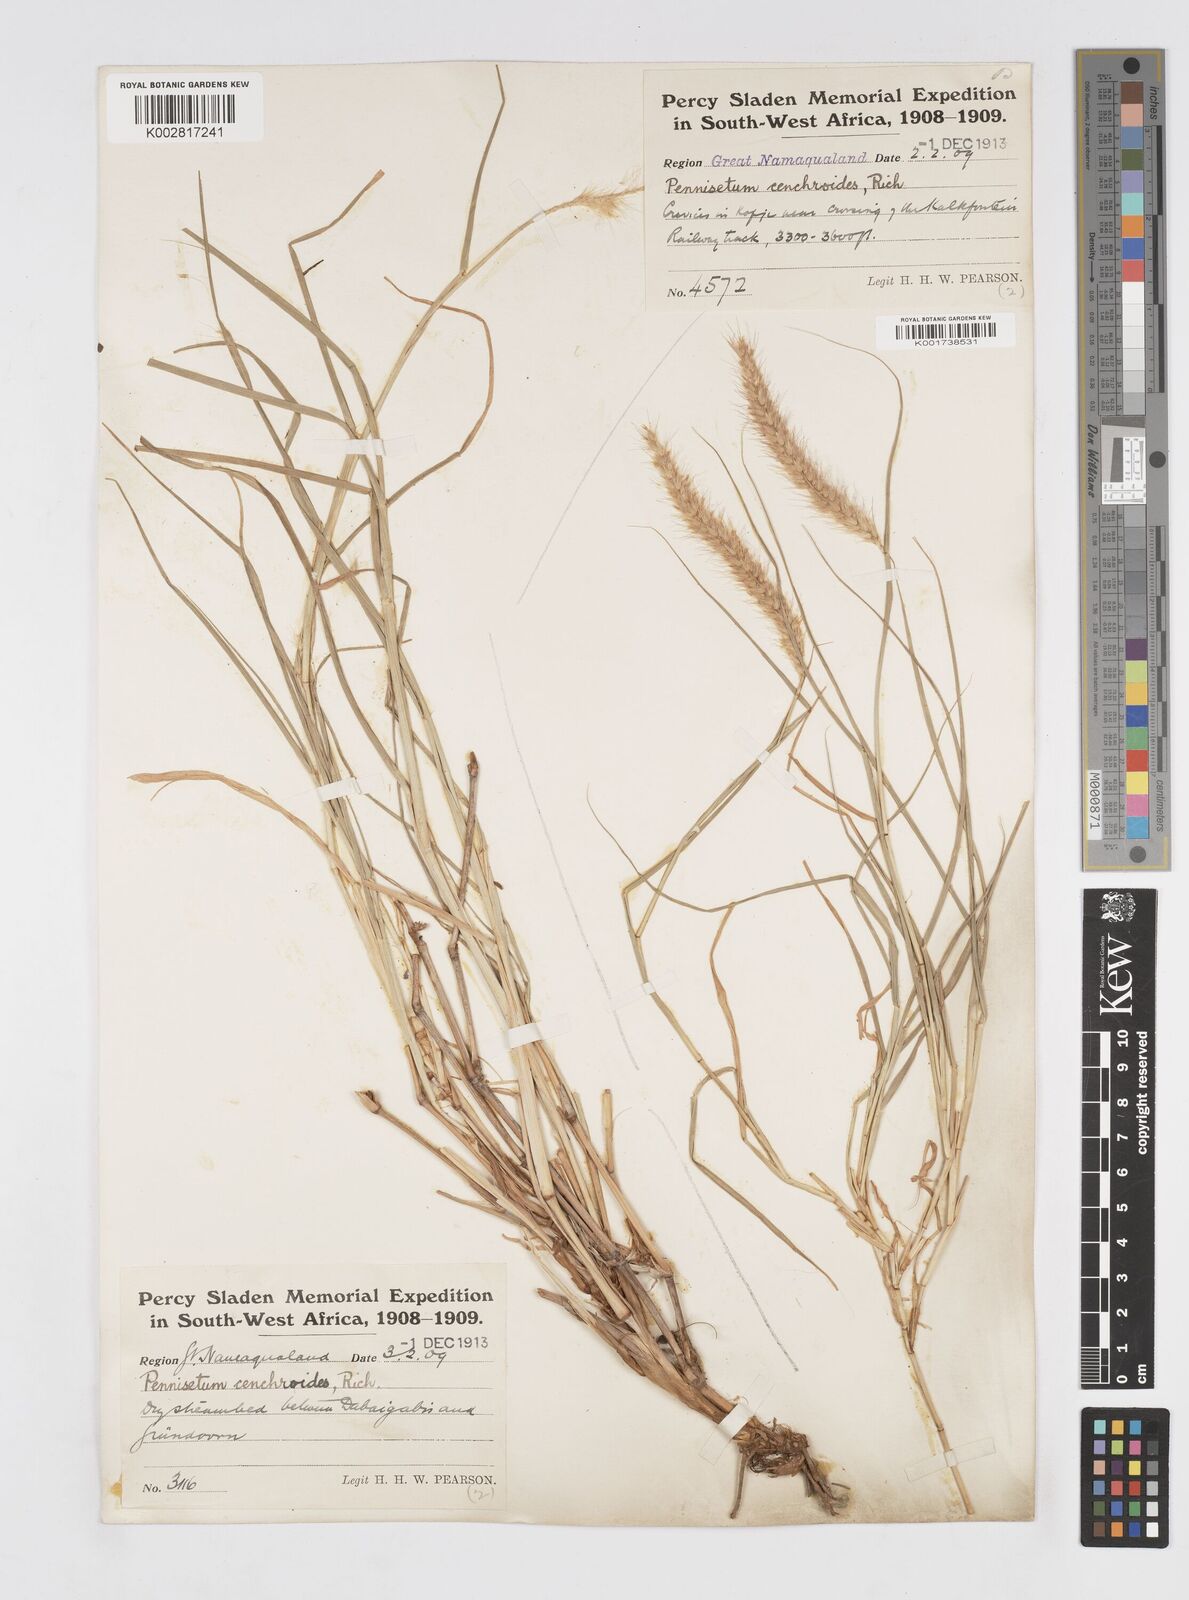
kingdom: Plantae
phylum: Tracheophyta
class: Liliopsida
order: Poales
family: Poaceae
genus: Cenchrus
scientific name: Cenchrus ciliaris
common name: Buffelgrass
